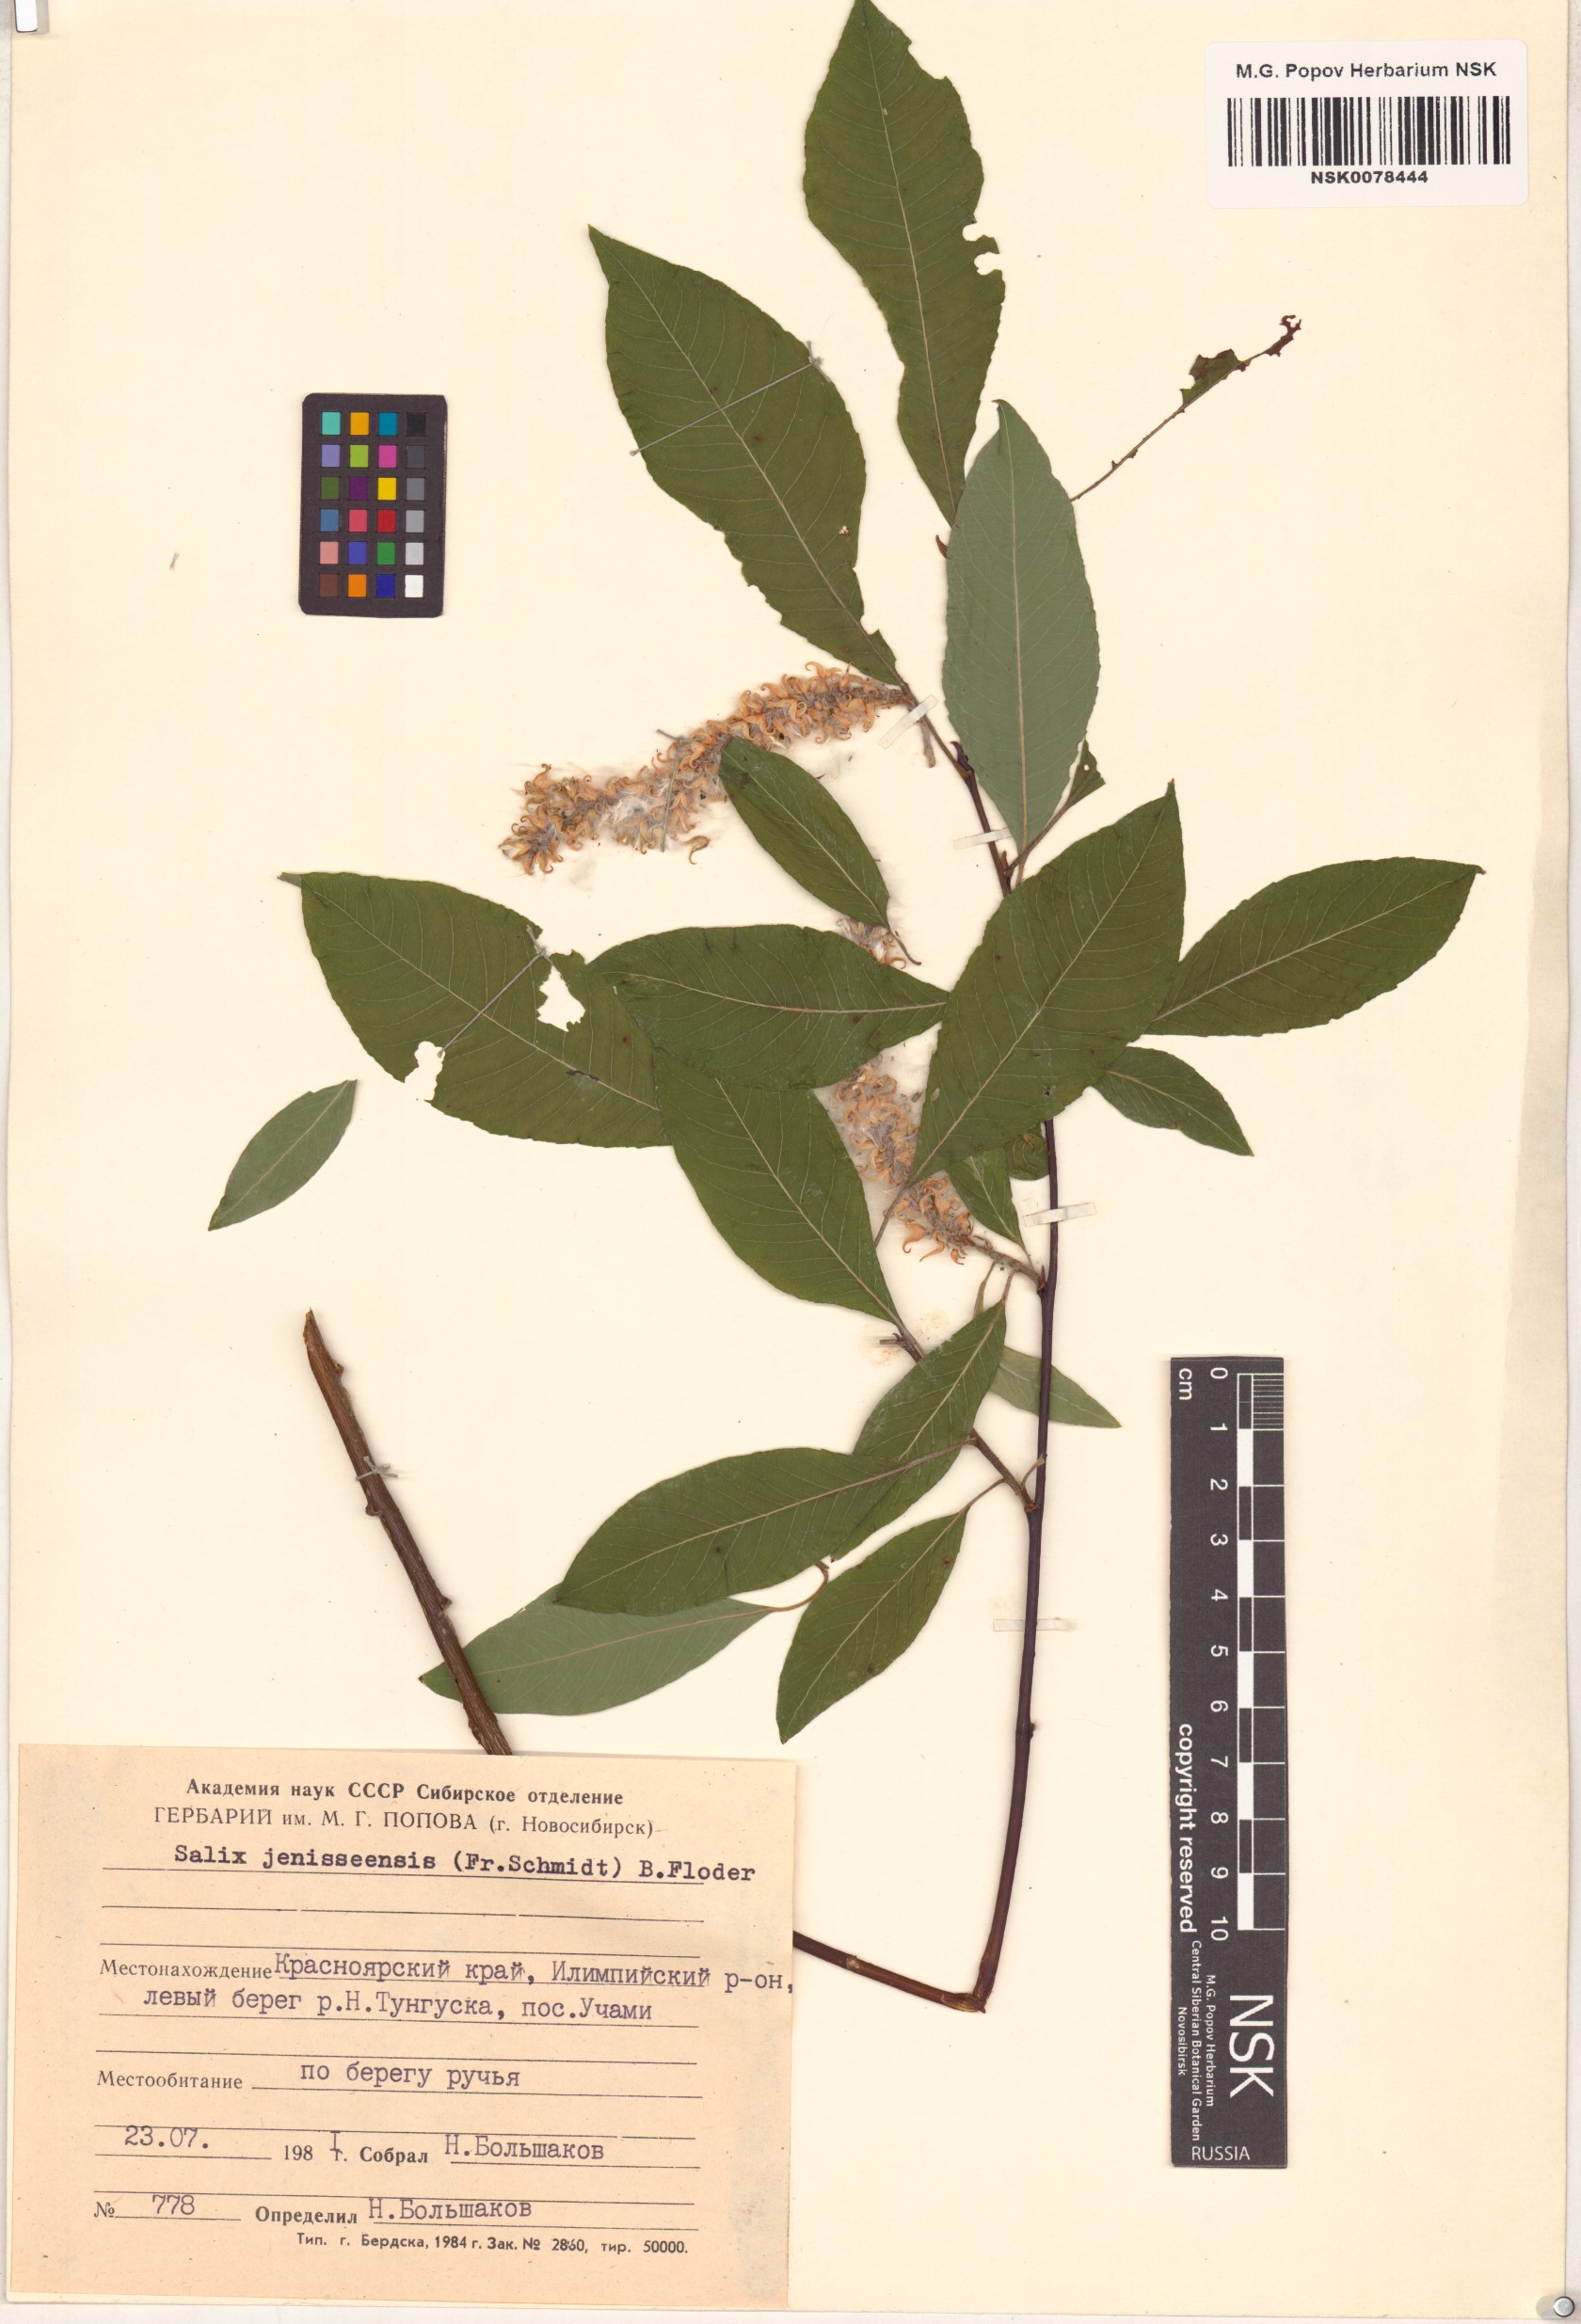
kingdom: Plantae
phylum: Tracheophyta
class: Magnoliopsida
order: Malpighiales
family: Salicaceae
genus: Salix
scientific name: Salix jenisseensis
